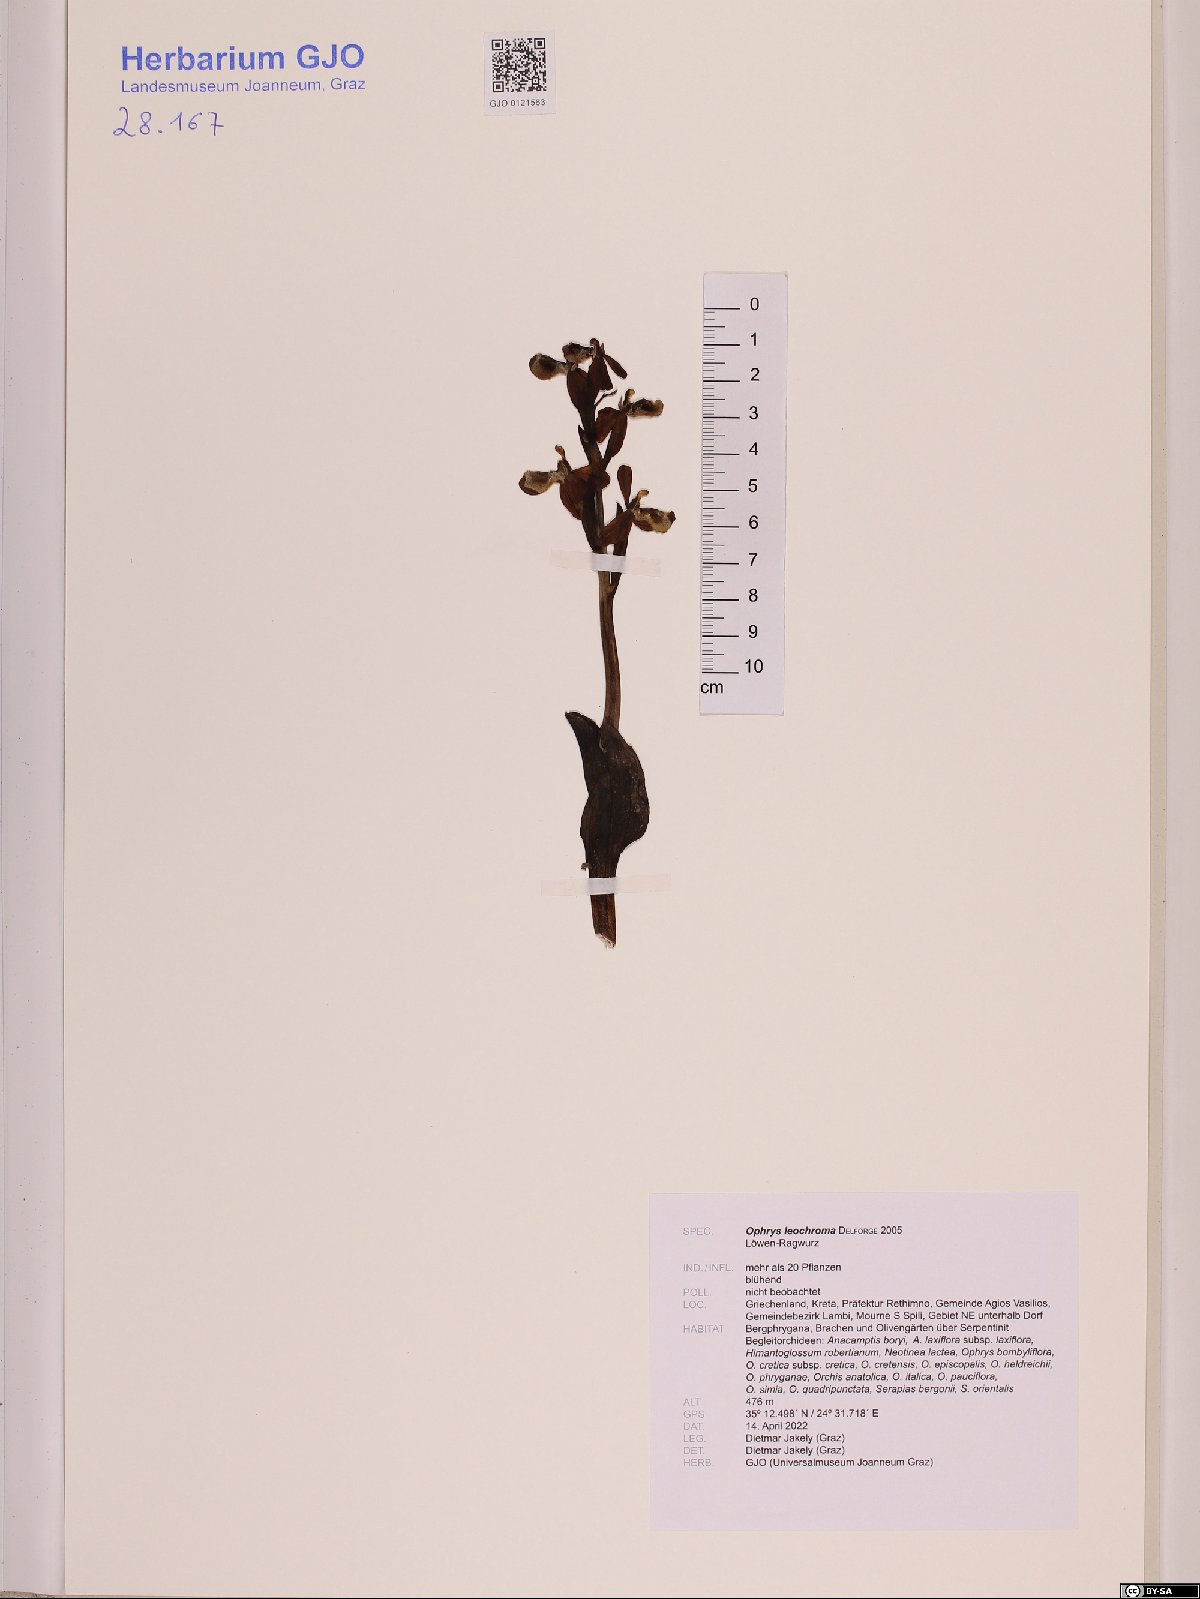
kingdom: Plantae
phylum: Tracheophyta
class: Liliopsida
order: Asparagales
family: Orchidaceae
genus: Ophrys
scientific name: Ophrys tenthredinifera
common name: Sawfly orchid
